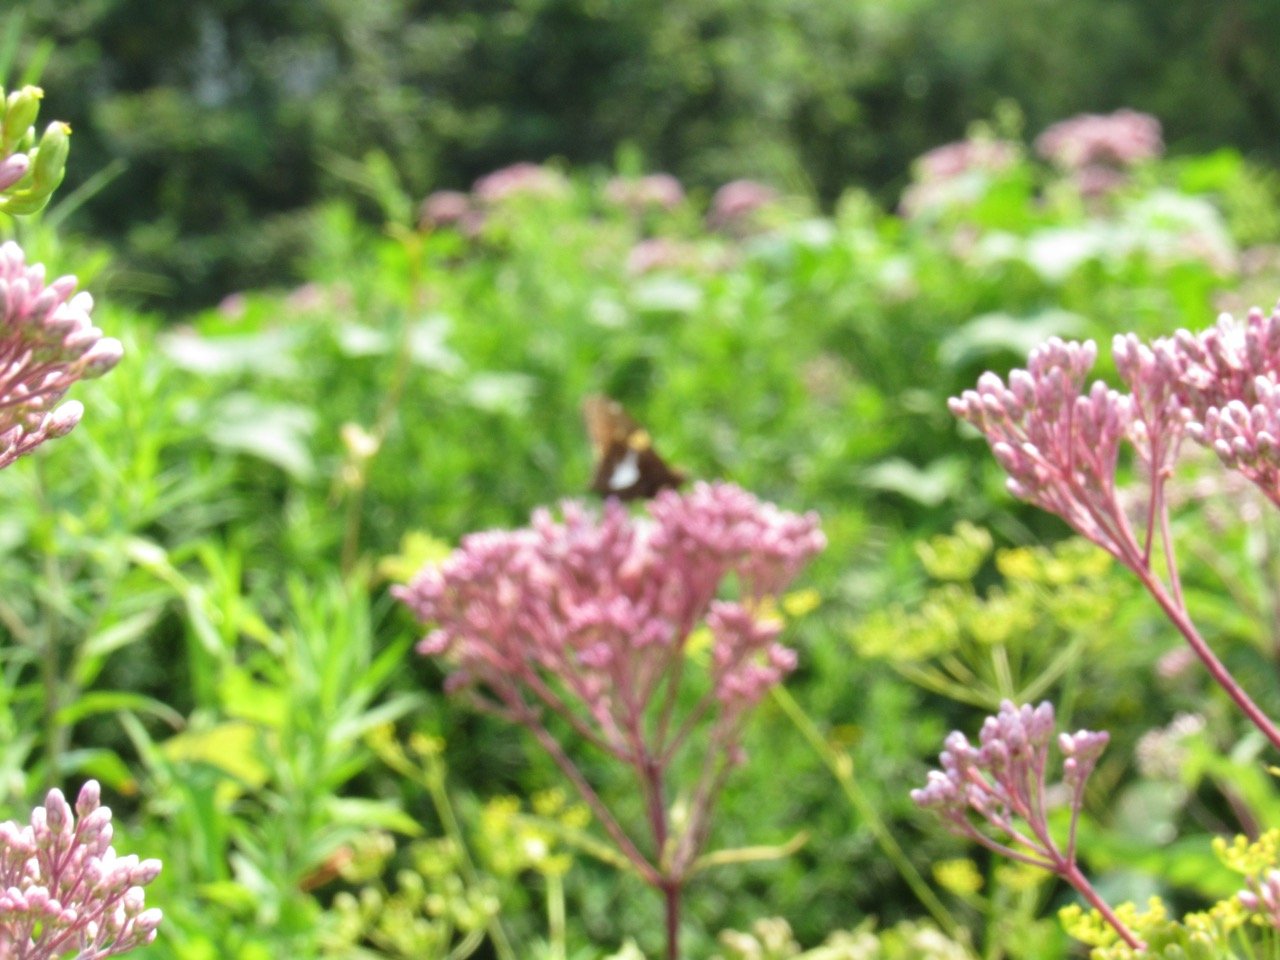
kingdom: Animalia
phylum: Arthropoda
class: Insecta
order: Lepidoptera
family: Hesperiidae
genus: Epargyreus
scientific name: Epargyreus clarus
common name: Silver-spotted Skipper
